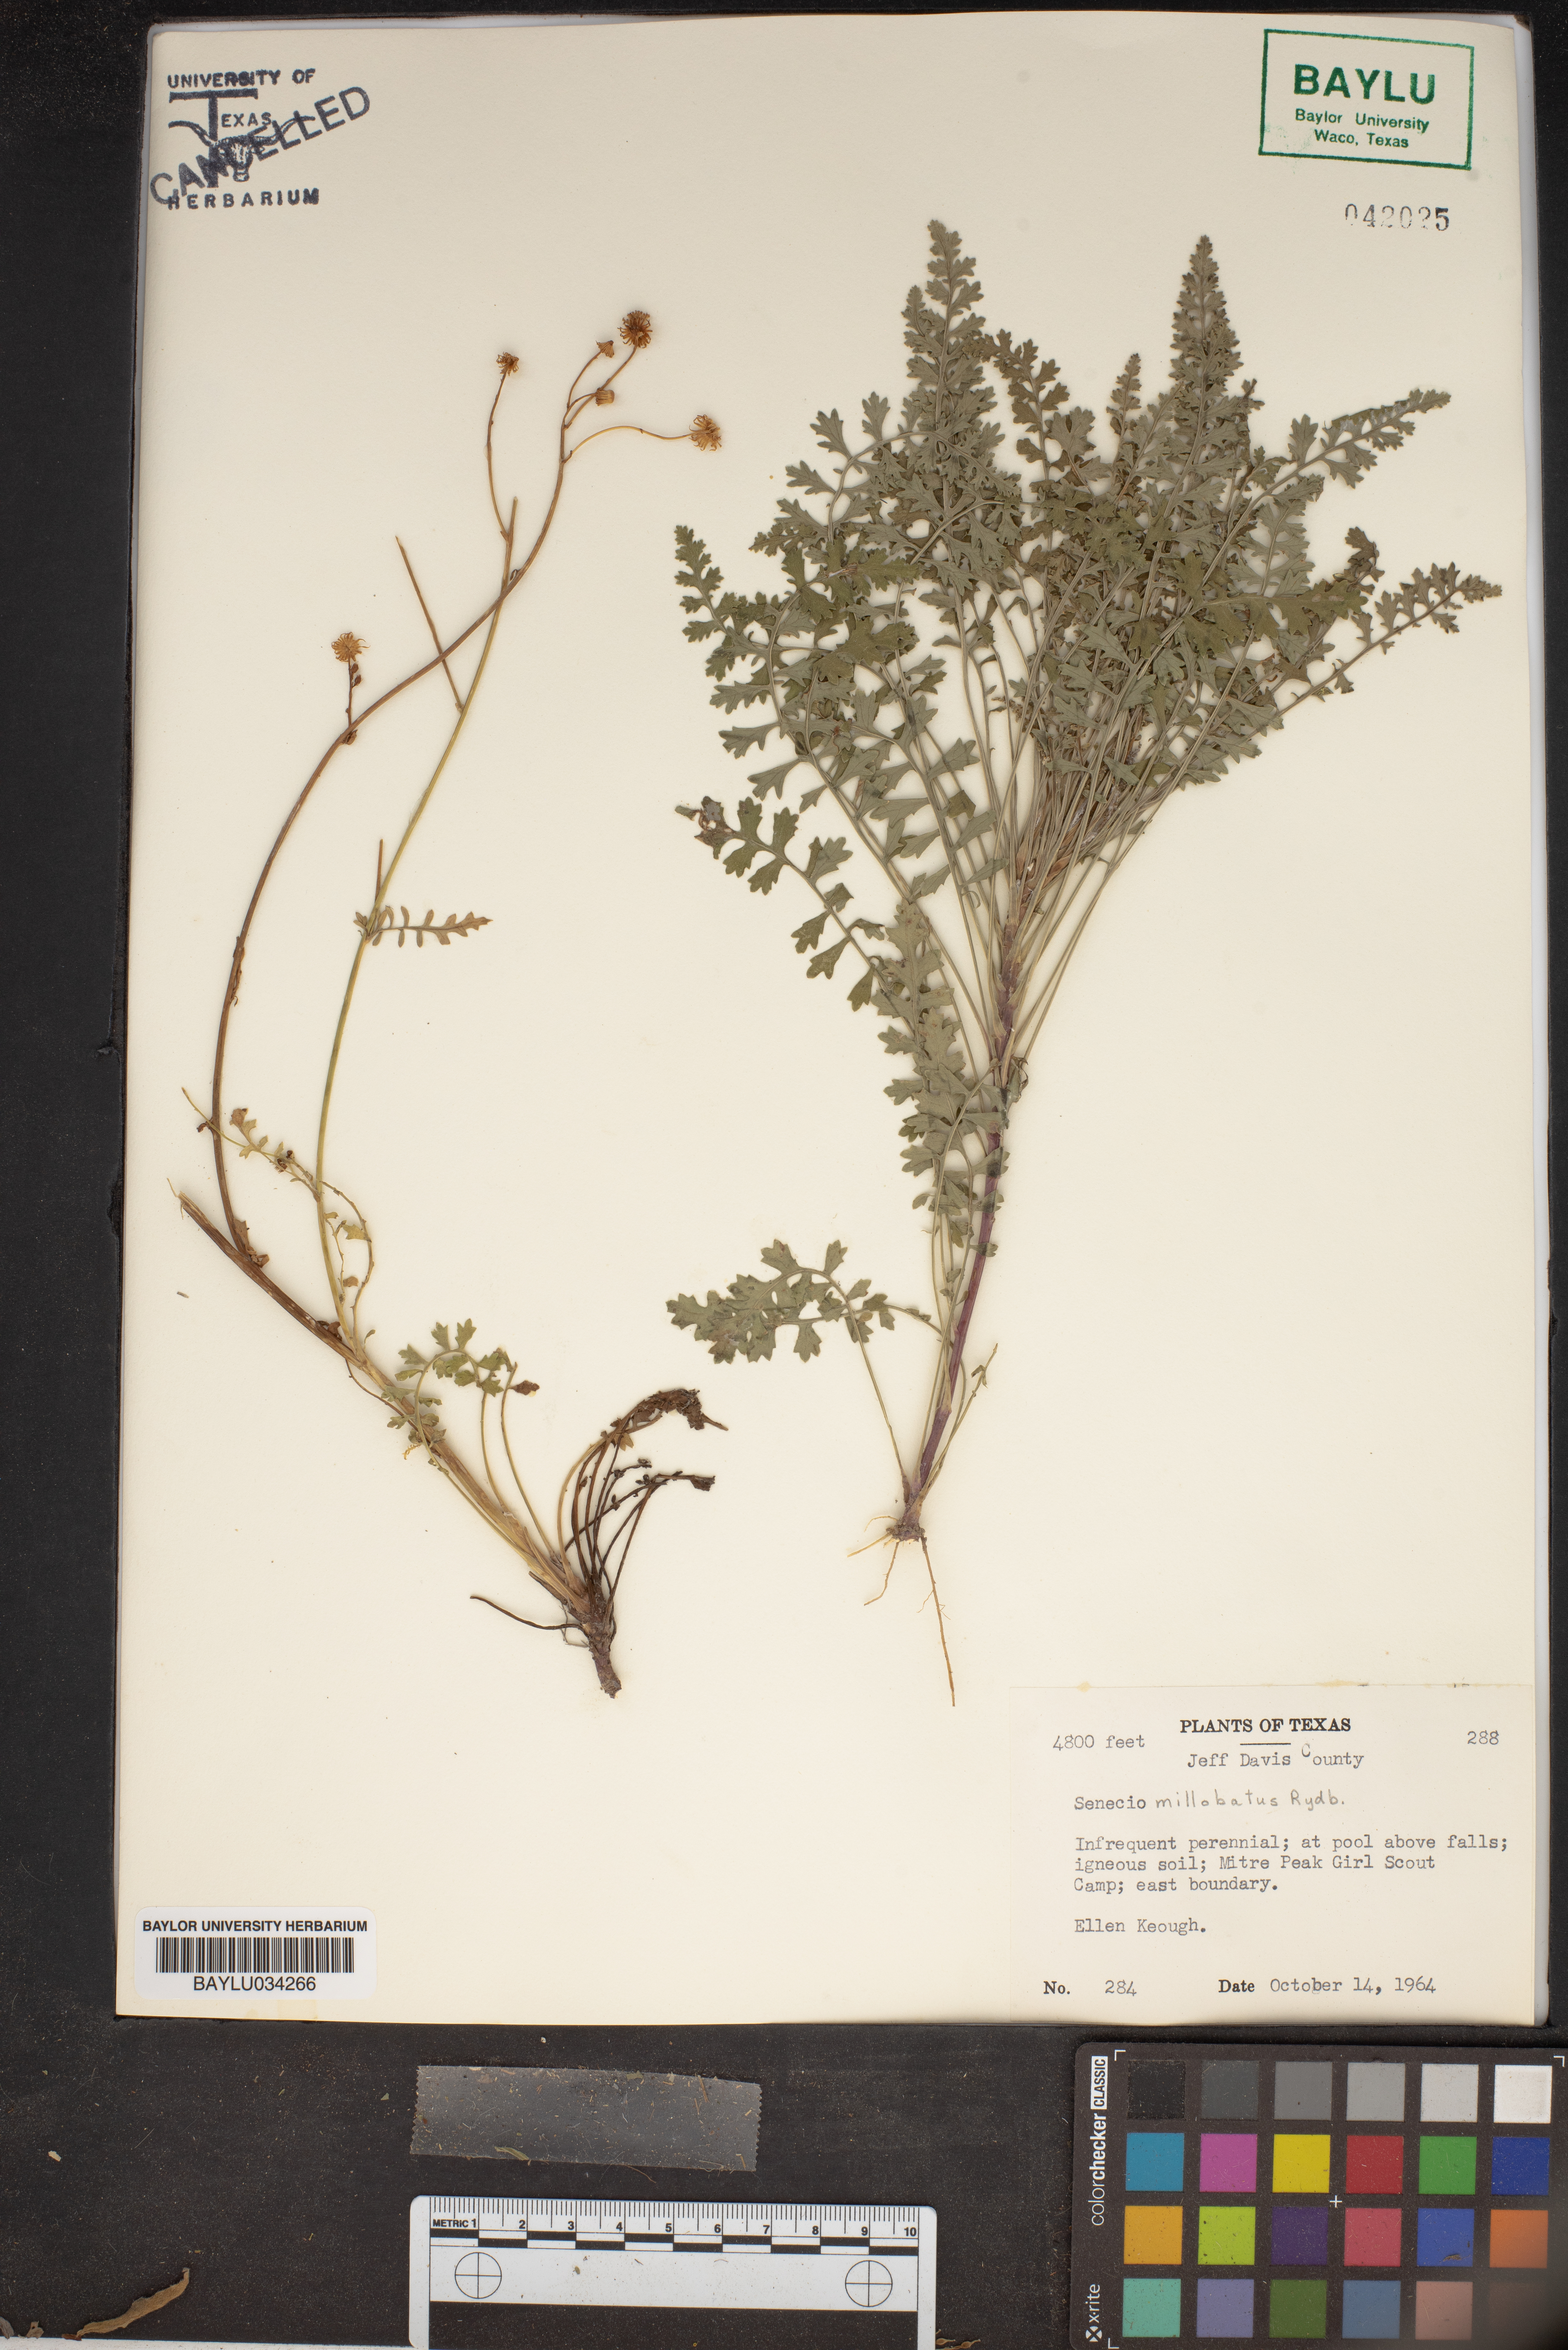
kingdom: Plantae
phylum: Tracheophyta
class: Magnoliopsida
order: Asterales
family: Asteraceae
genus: Packera
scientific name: Packera millelobata
